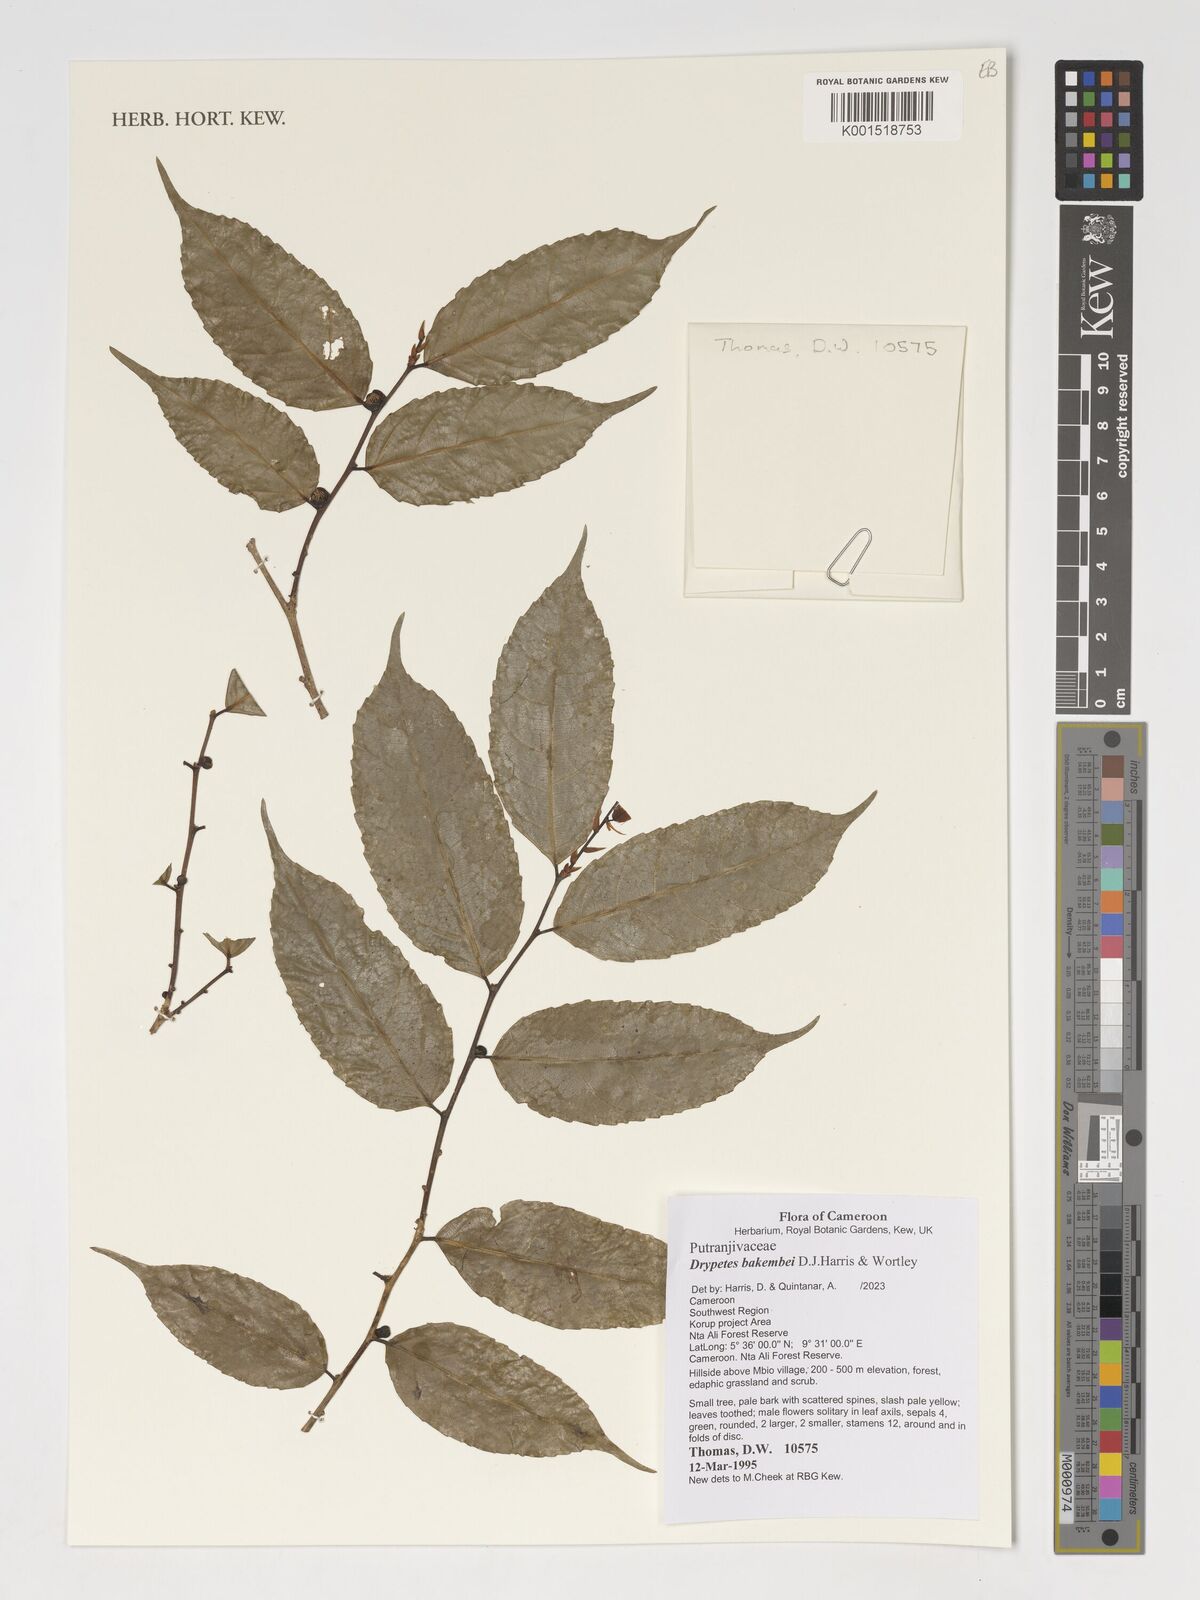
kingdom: Plantae
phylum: Tracheophyta
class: Magnoliopsida
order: Malpighiales
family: Putranjivaceae
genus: Drypetes
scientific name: Drypetes bakembei
